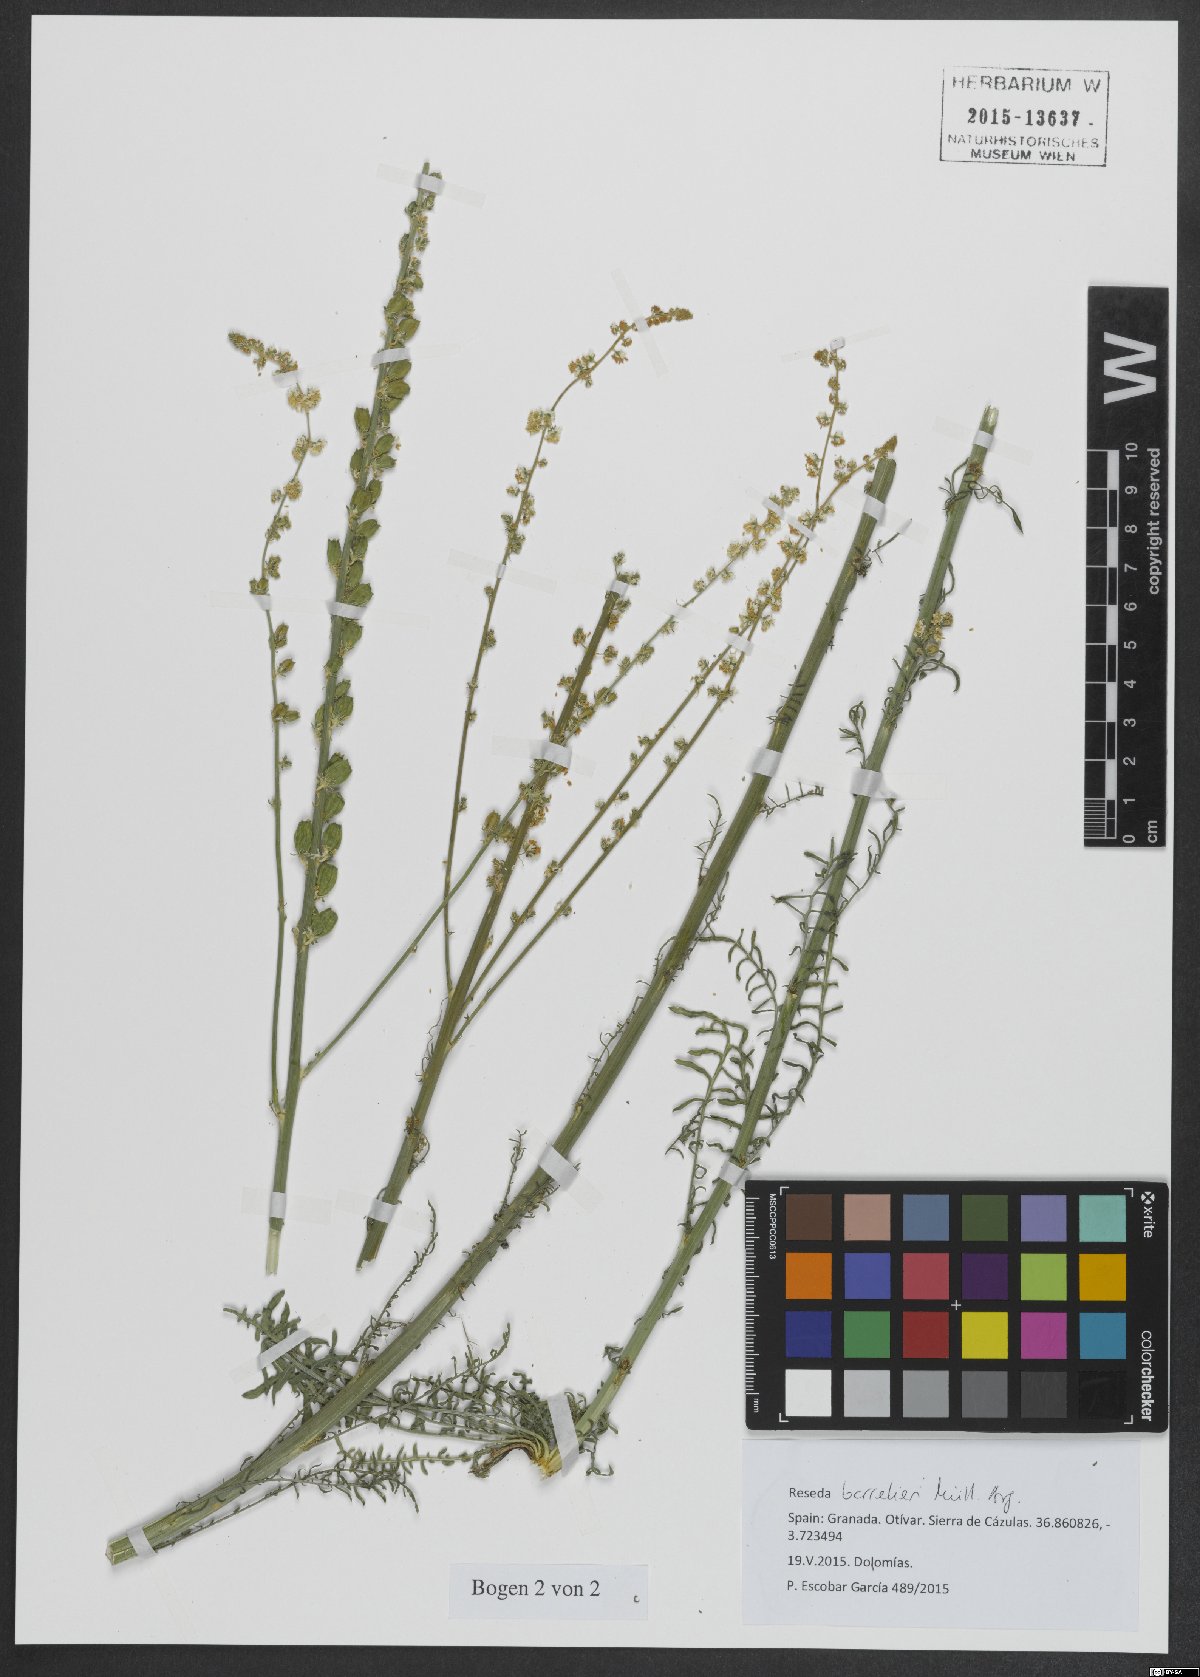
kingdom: Plantae
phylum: Tracheophyta
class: Magnoliopsida
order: Brassicales
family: Resedaceae
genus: Reseda
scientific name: Reseda barrelieri
